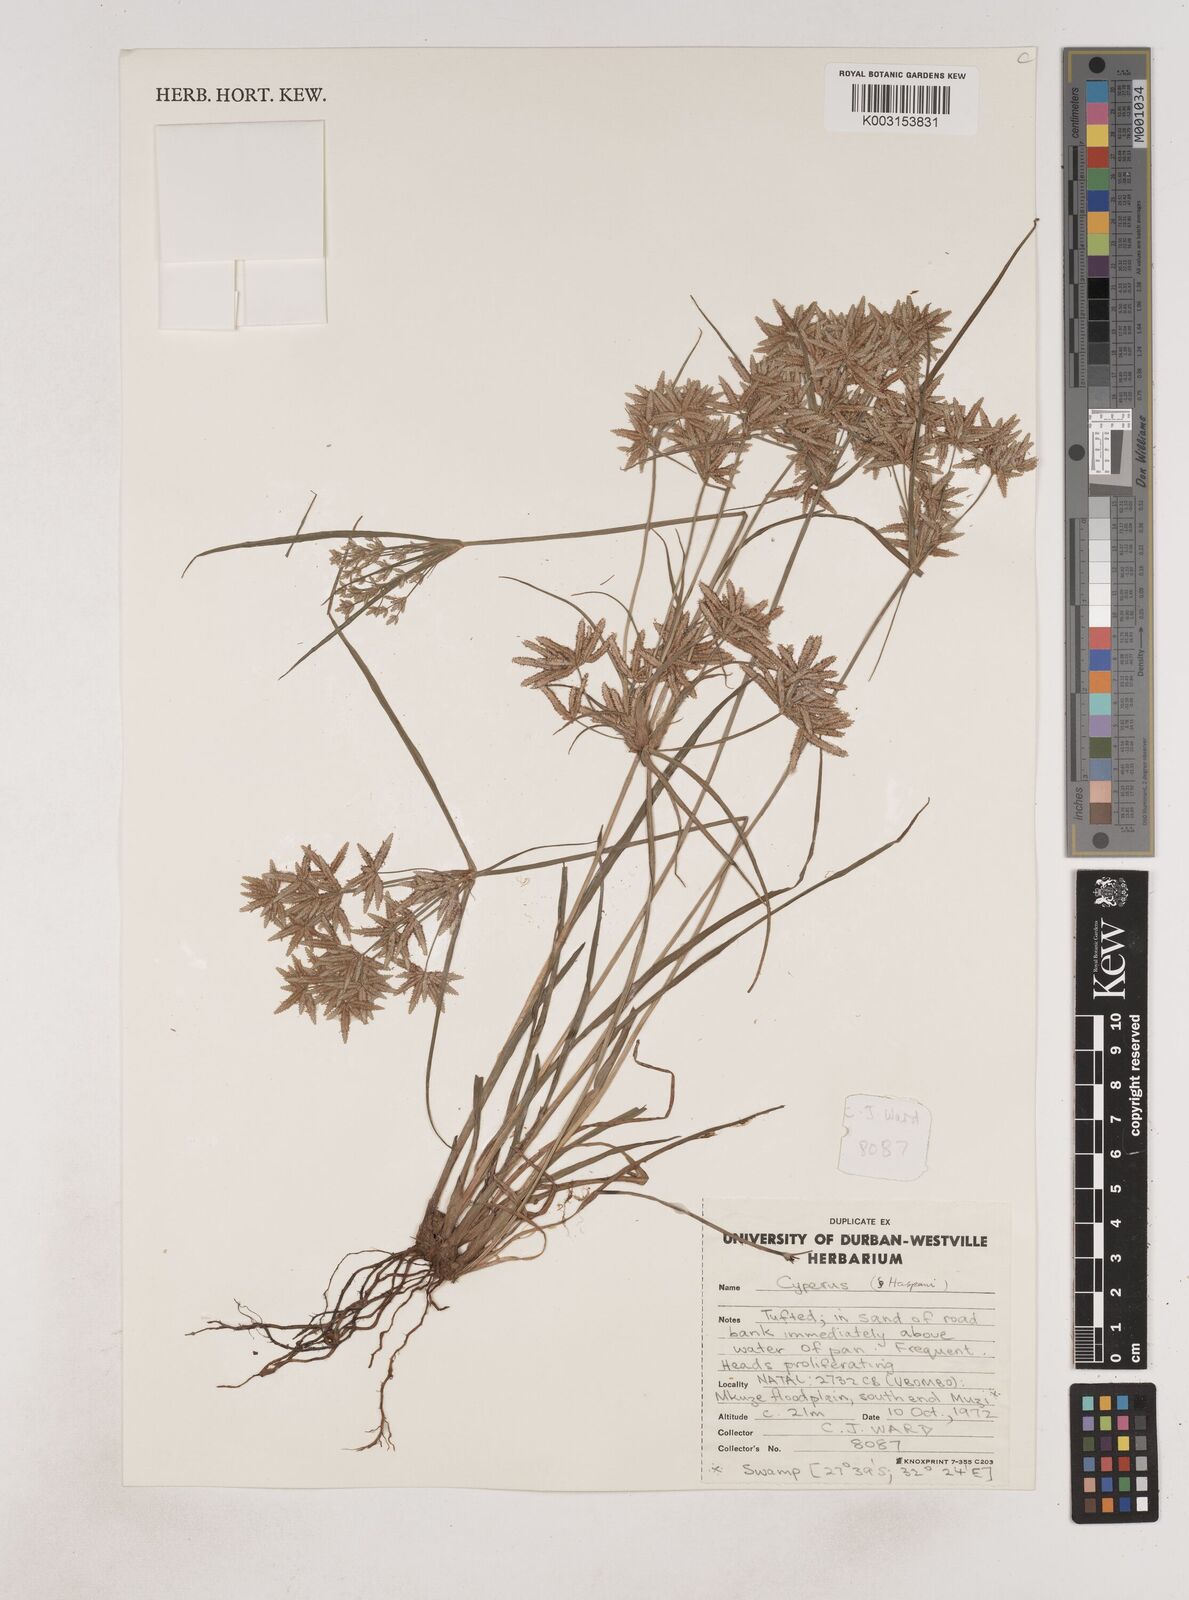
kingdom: Plantae
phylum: Tracheophyta
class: Liliopsida
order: Poales
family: Cyperaceae
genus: Cyperus
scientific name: Cyperus
